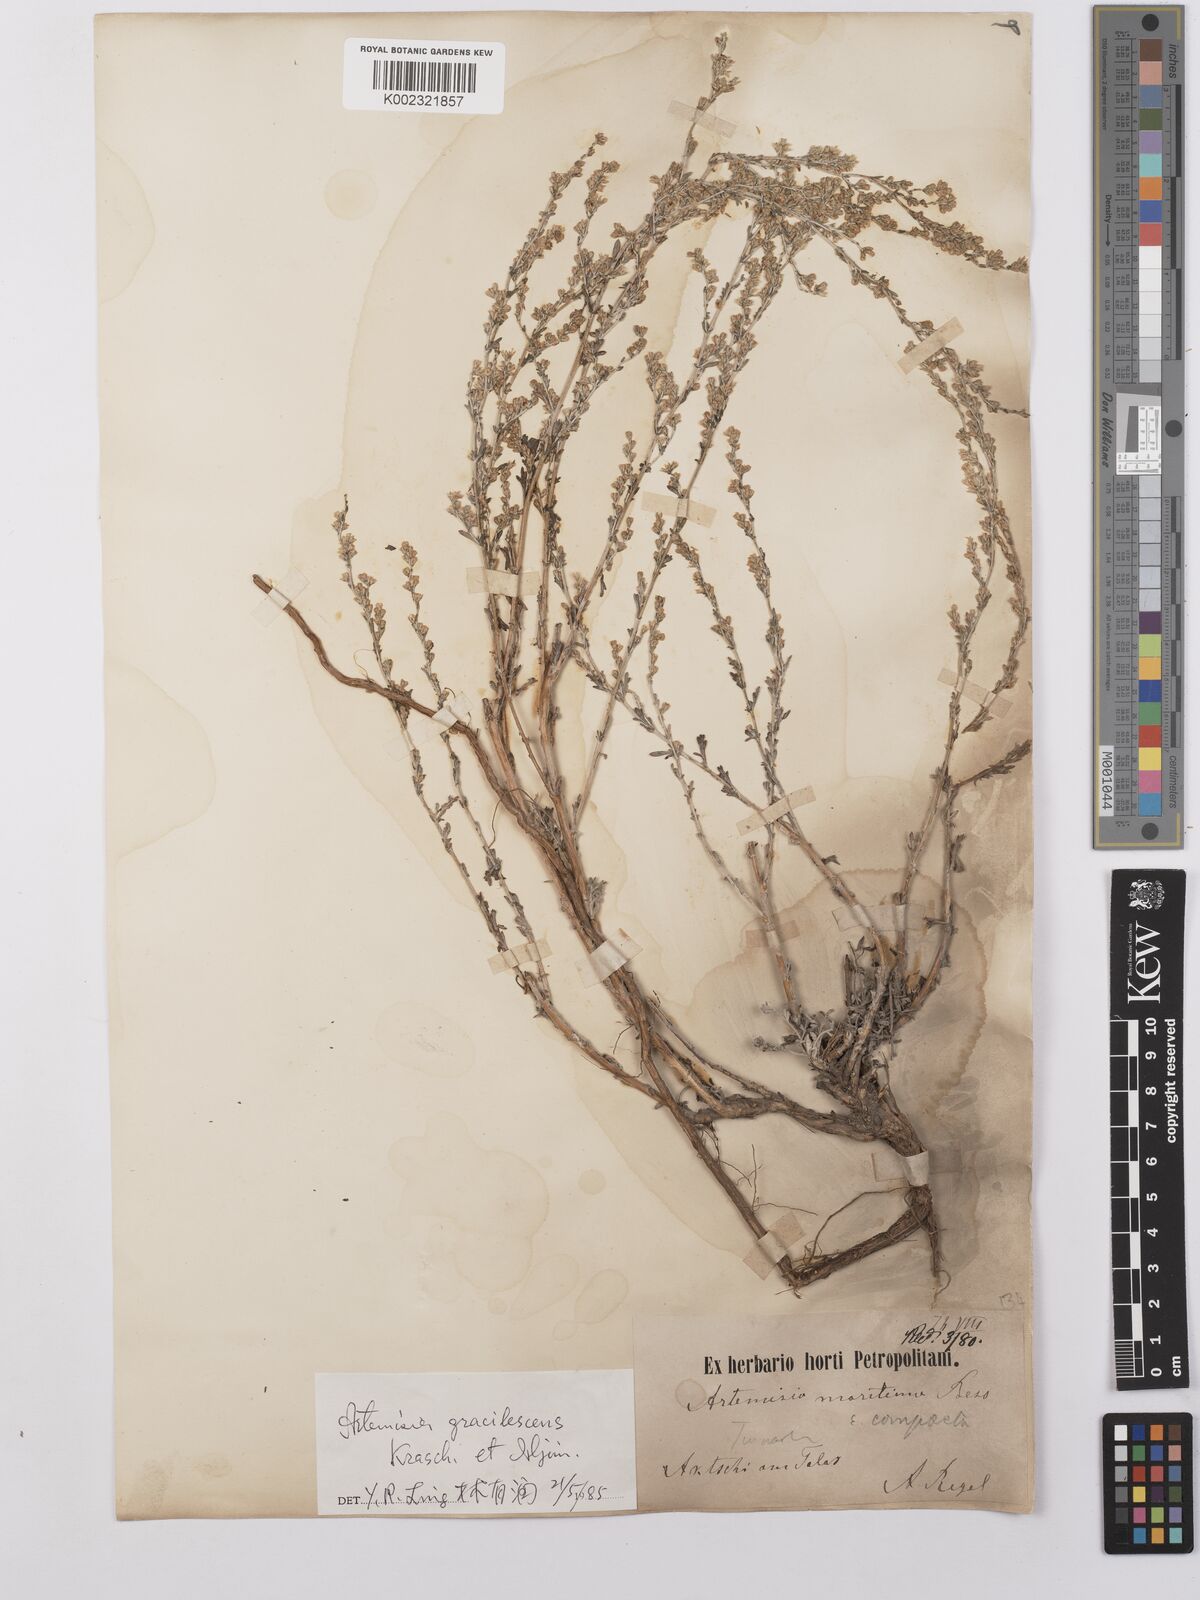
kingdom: Plantae
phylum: Tracheophyta
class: Magnoliopsida
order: Asterales
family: Asteraceae
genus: Artemisia
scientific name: Artemisia gracilescens
